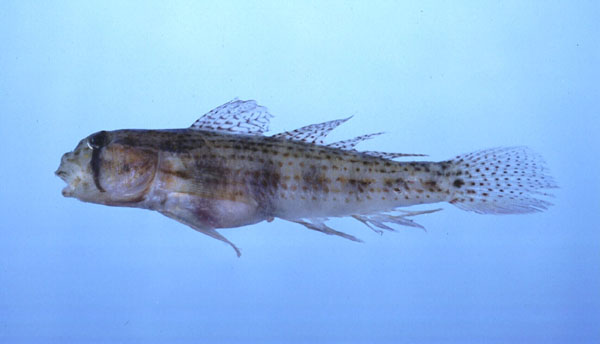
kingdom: Animalia
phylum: Chordata
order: Perciformes
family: Gobiidae
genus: Gnatholepis
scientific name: Gnatholepis cauerensis
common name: Bridled goby
